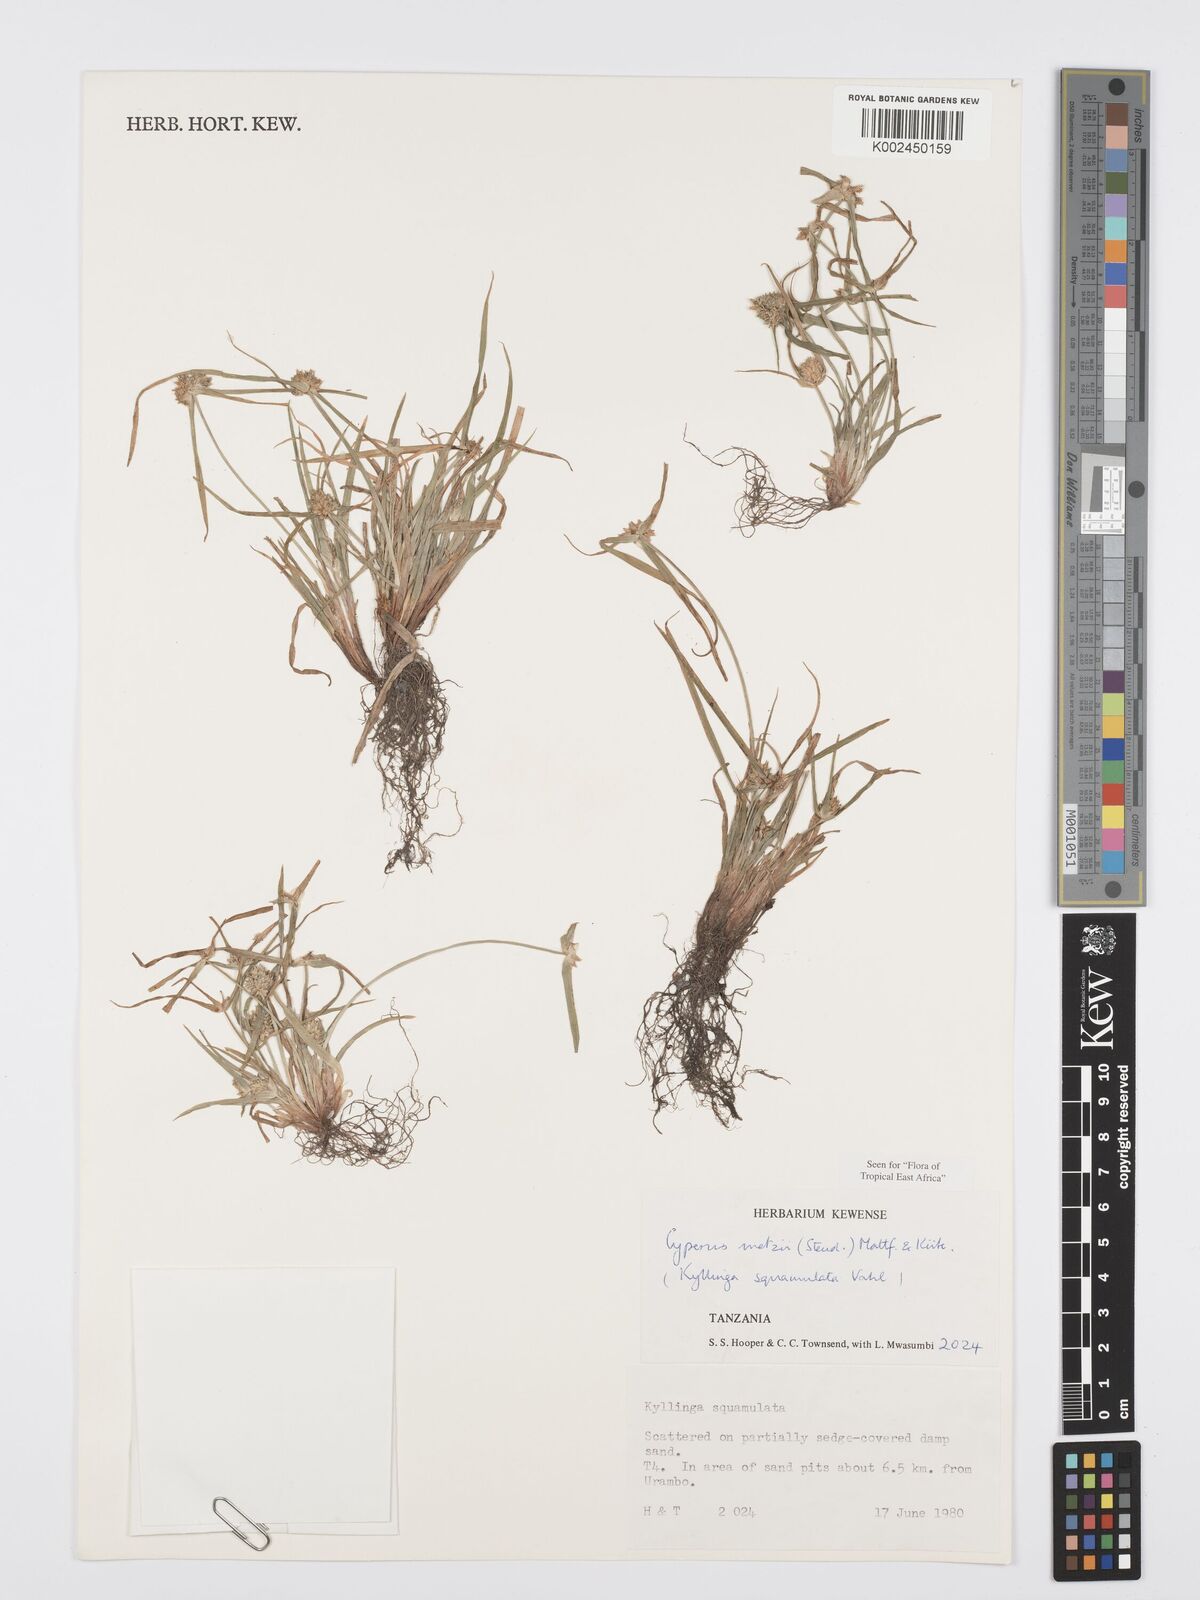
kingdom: Plantae
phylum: Tracheophyta
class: Liliopsida
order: Poales
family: Cyperaceae
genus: Cyperus
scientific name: Cyperus distans
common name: Slender cyperus
